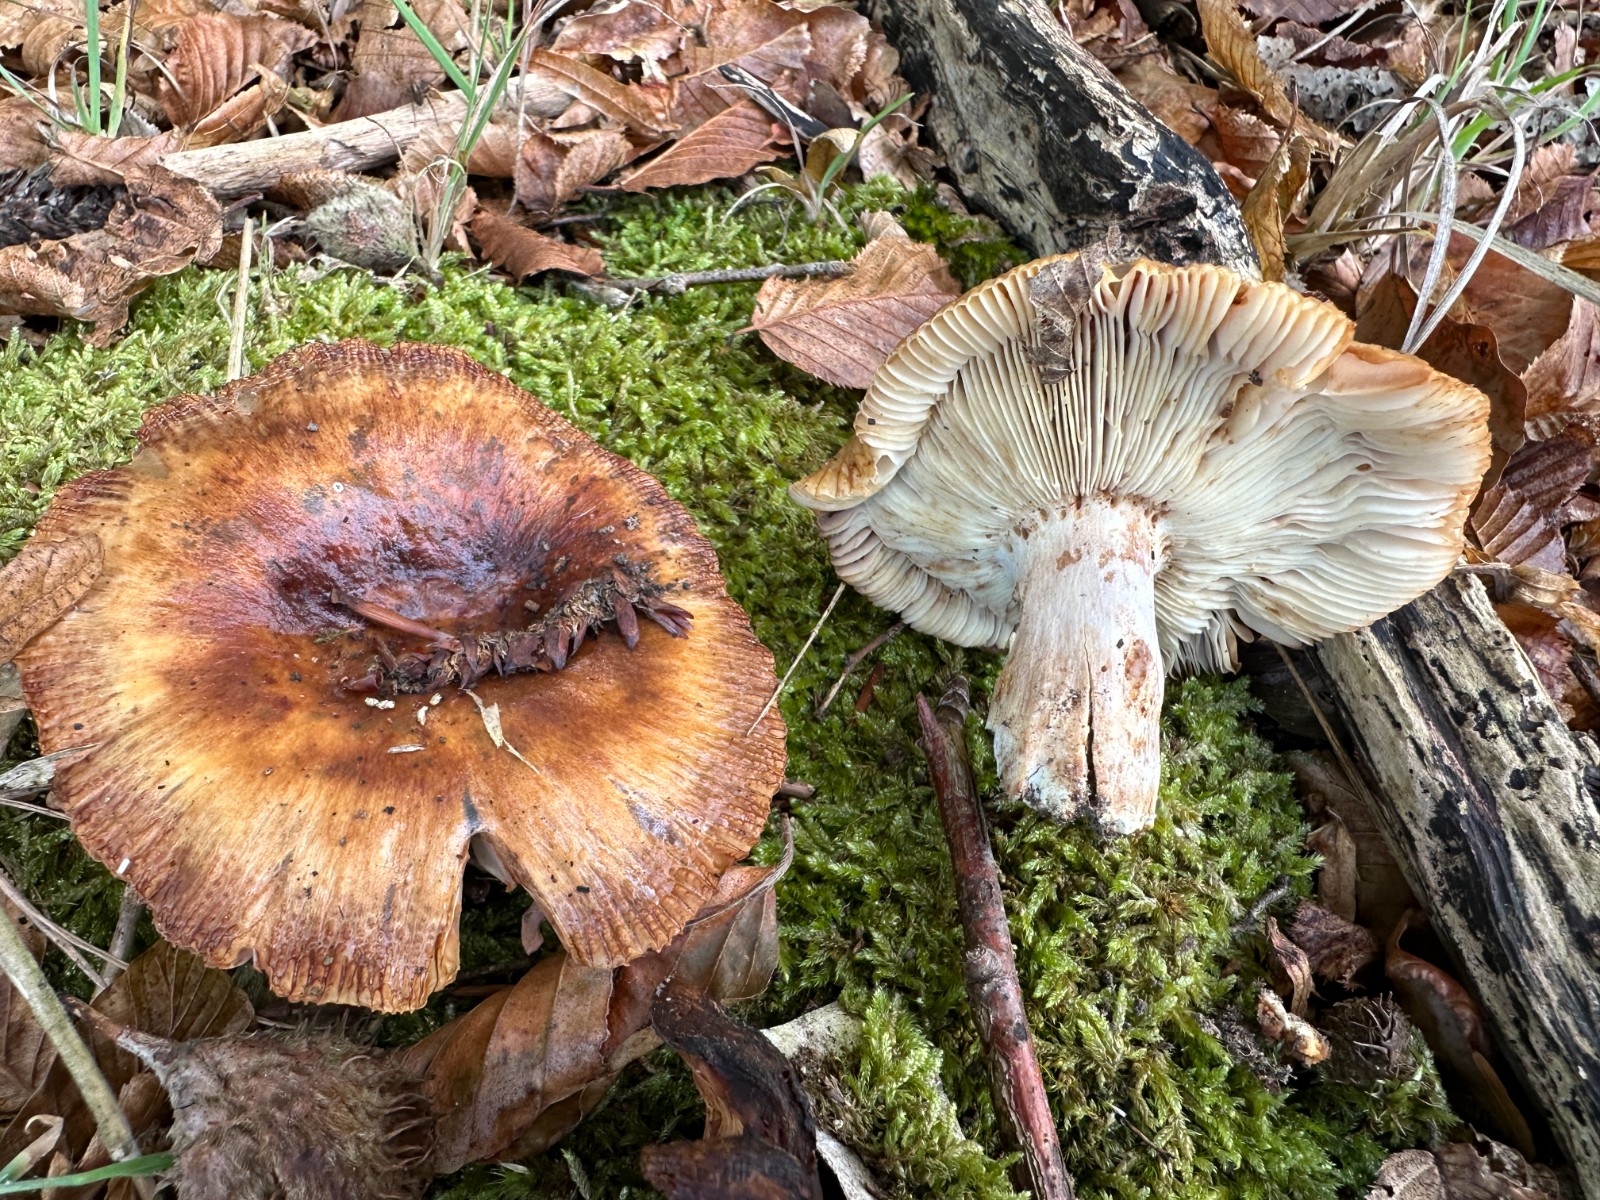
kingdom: Fungi
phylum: Basidiomycota
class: Agaricomycetes
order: Russulales
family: Russulaceae
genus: Russula
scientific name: Russula foetens
